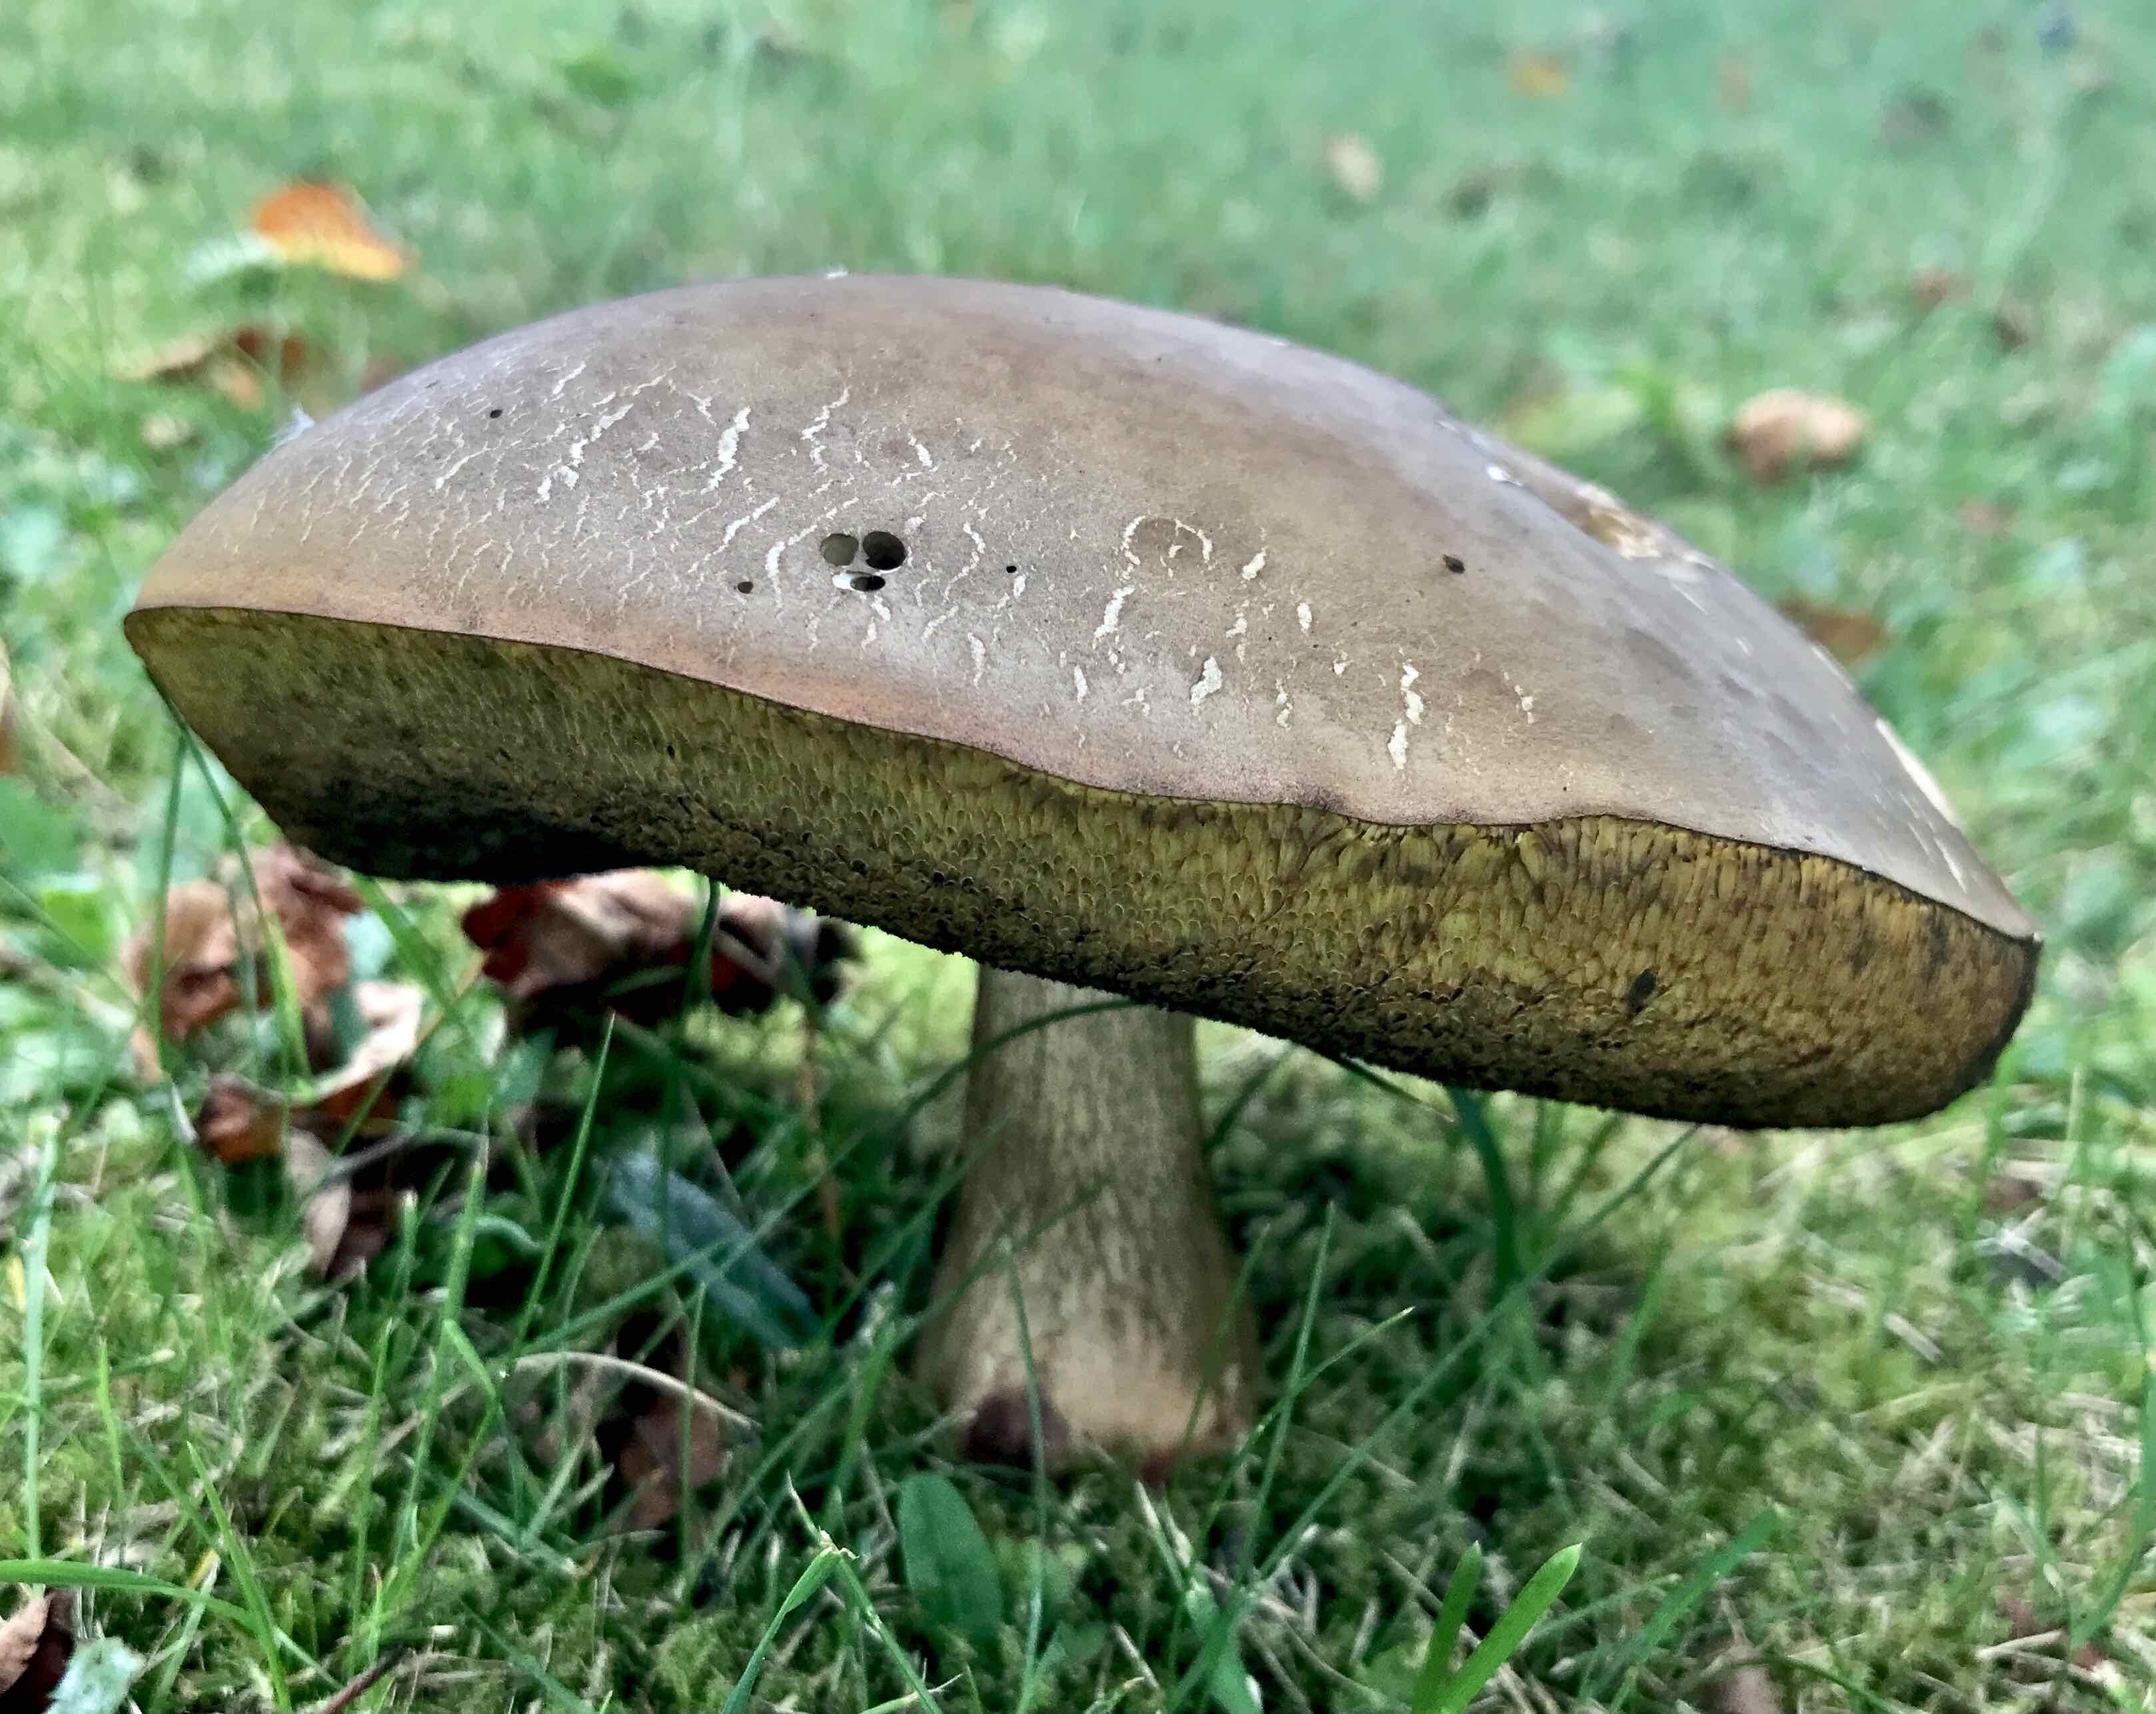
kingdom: Fungi
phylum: Basidiomycota
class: Agaricomycetes
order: Boletales
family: Boletaceae
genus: Suillellus
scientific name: Suillellus luridus
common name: netstokket indigorørhat
